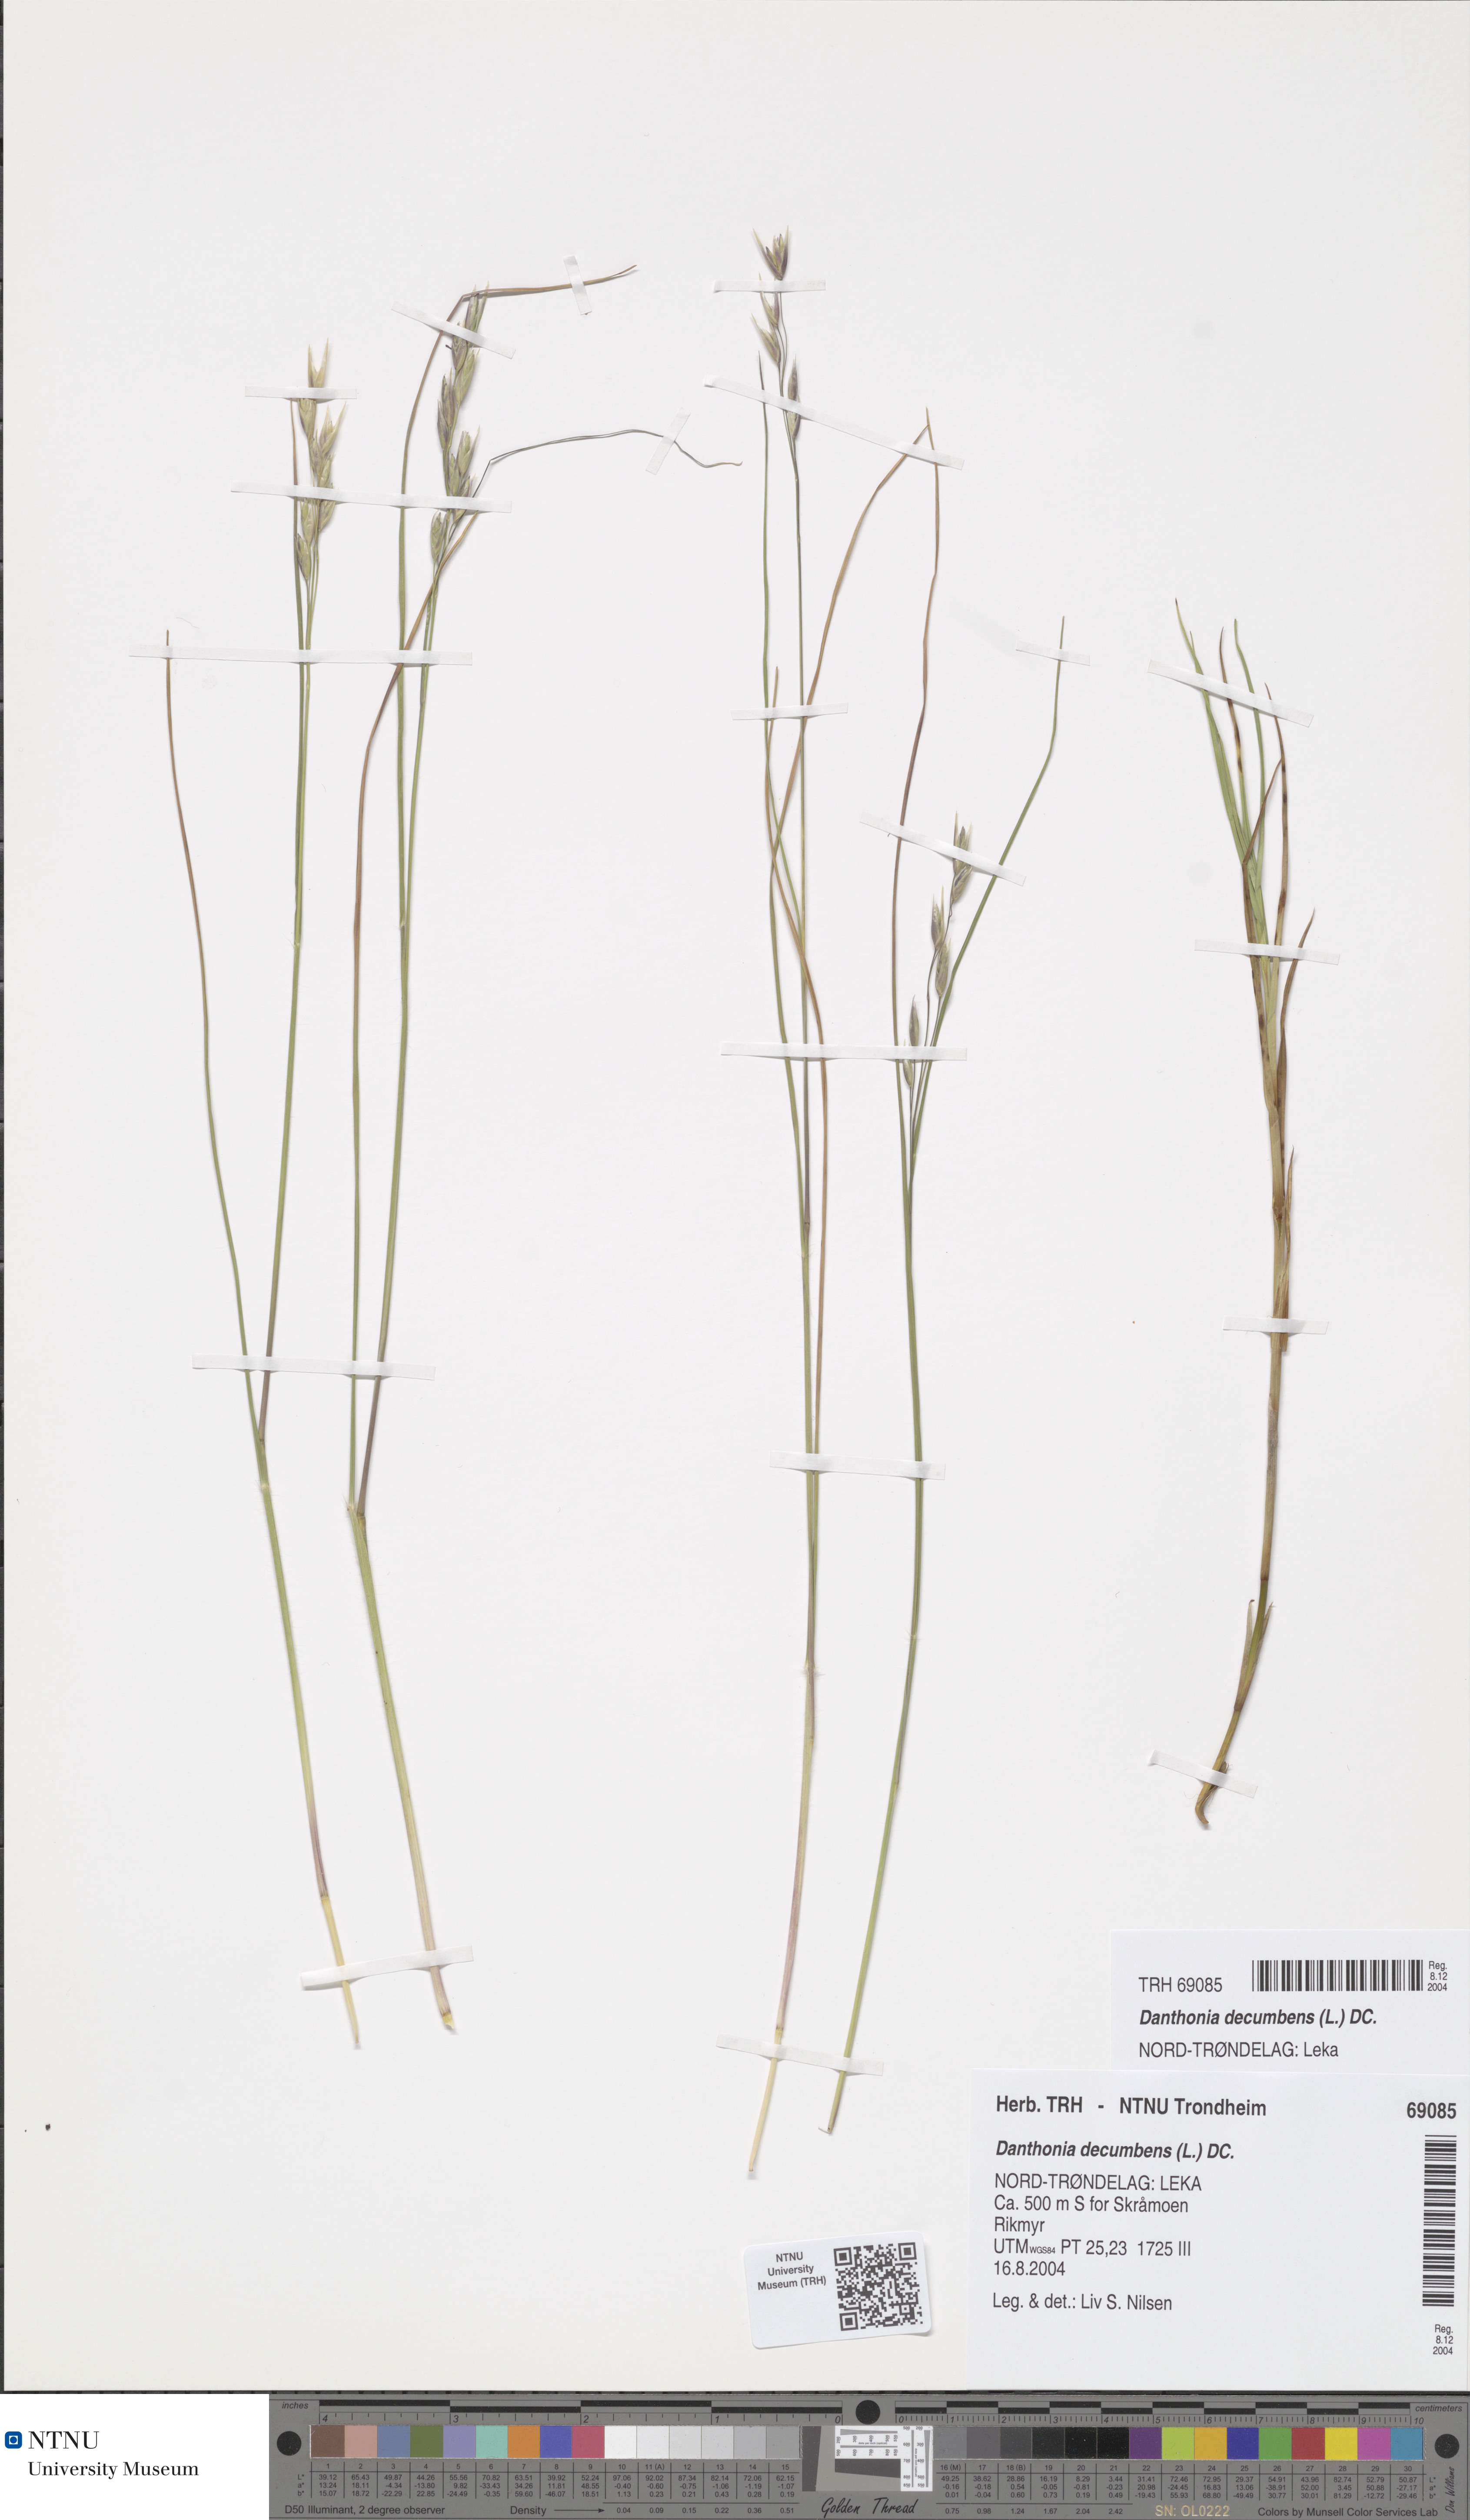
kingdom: Plantae
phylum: Tracheophyta
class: Liliopsida
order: Poales
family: Poaceae
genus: Danthonia
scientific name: Danthonia decumbens
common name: Common heathgrass
